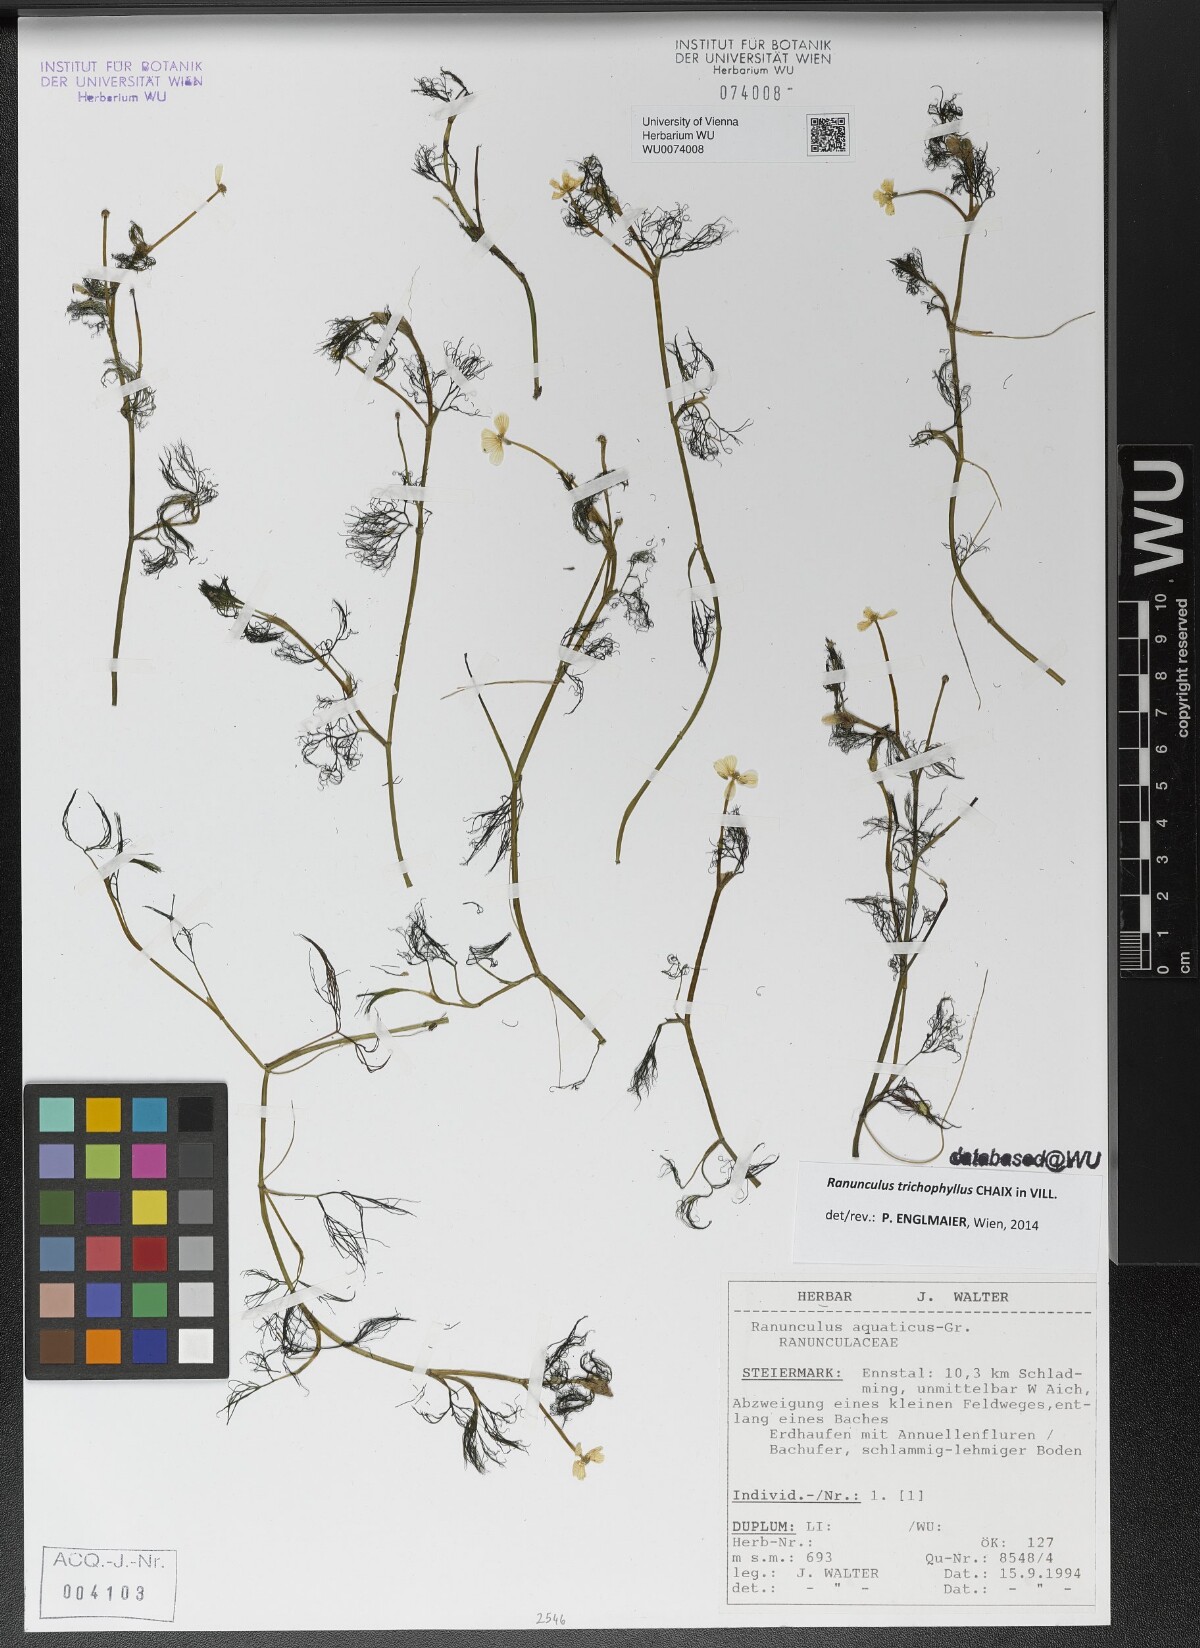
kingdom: Plantae
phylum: Tracheophyta
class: Magnoliopsida
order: Ranunculales
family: Ranunculaceae
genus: Ranunculus
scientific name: Ranunculus trichophyllus
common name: Thread-leaved water-crowfoot
